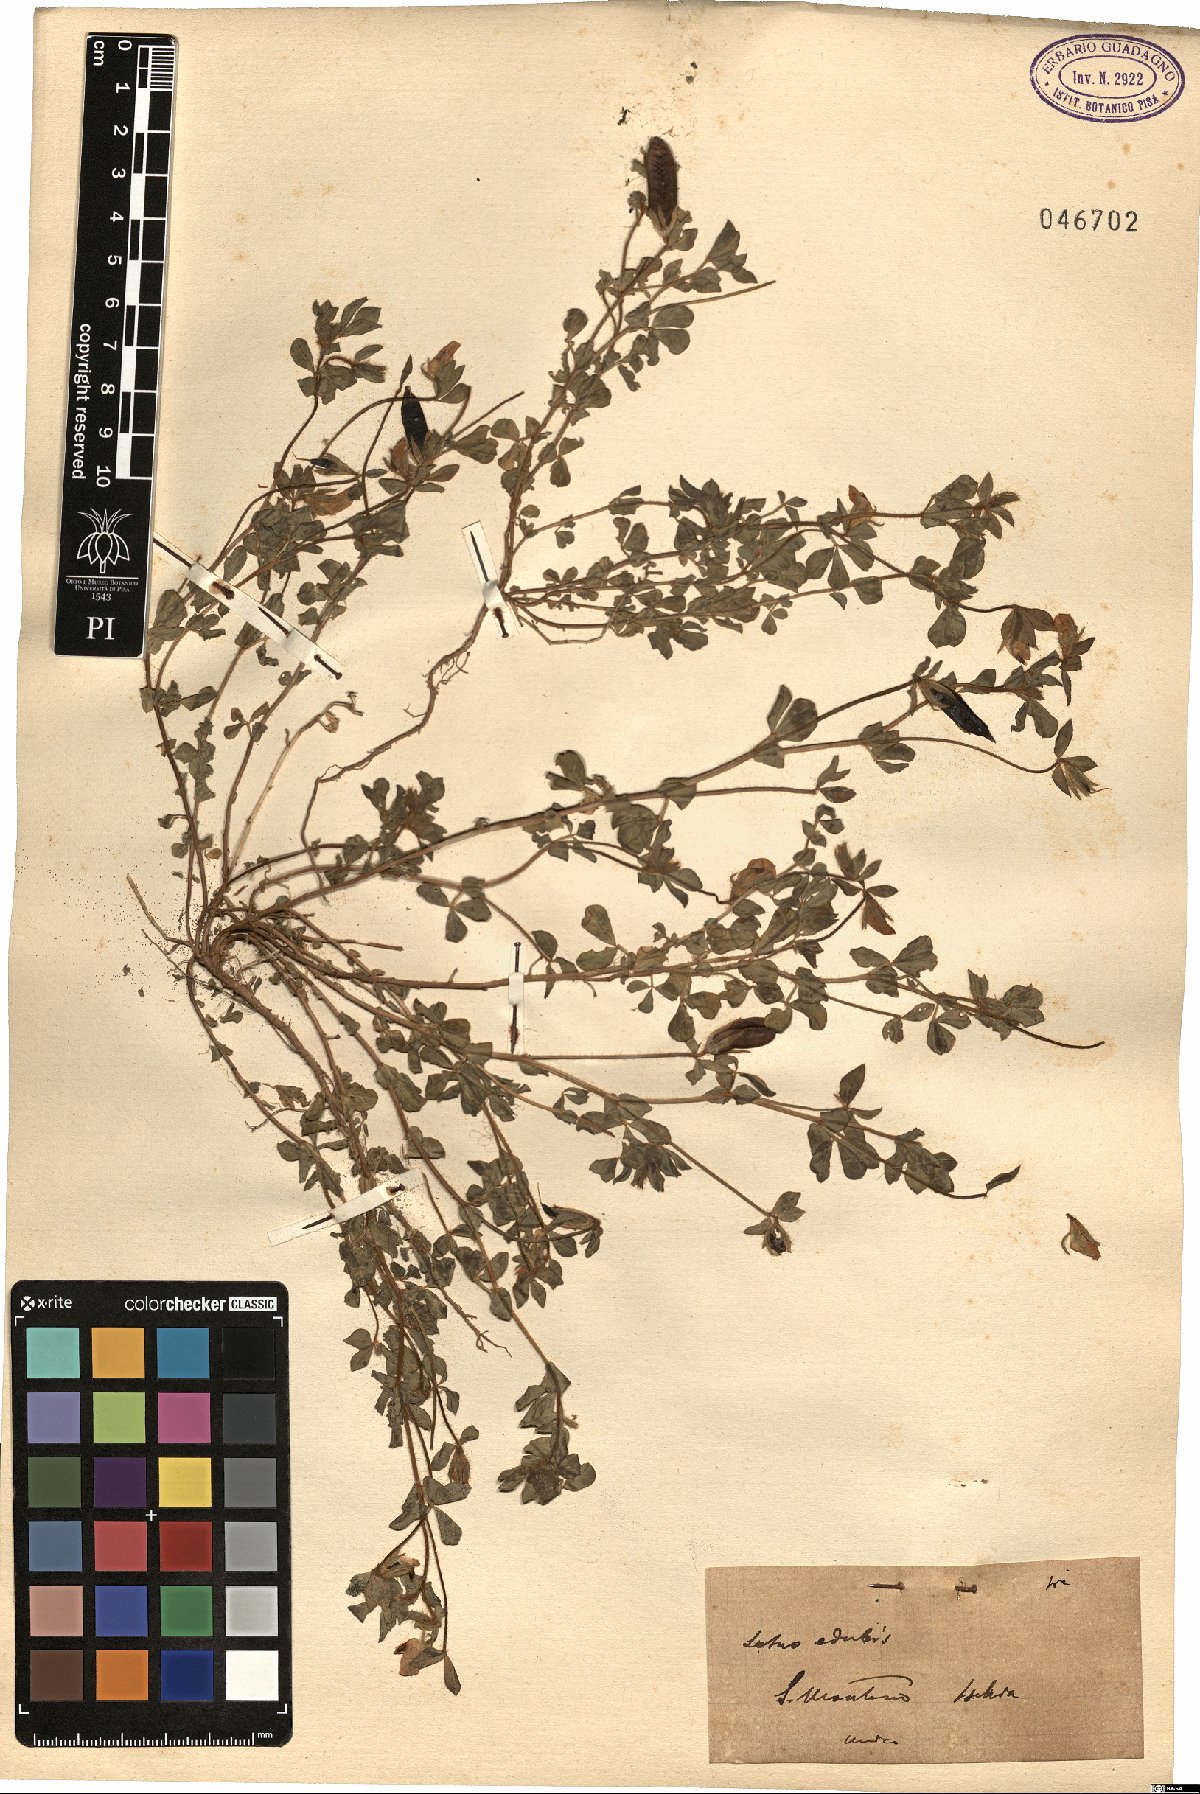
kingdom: Plantae
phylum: Tracheophyta
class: Magnoliopsida
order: Fabales
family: Fabaceae
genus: Lotus
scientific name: Lotus edulis
